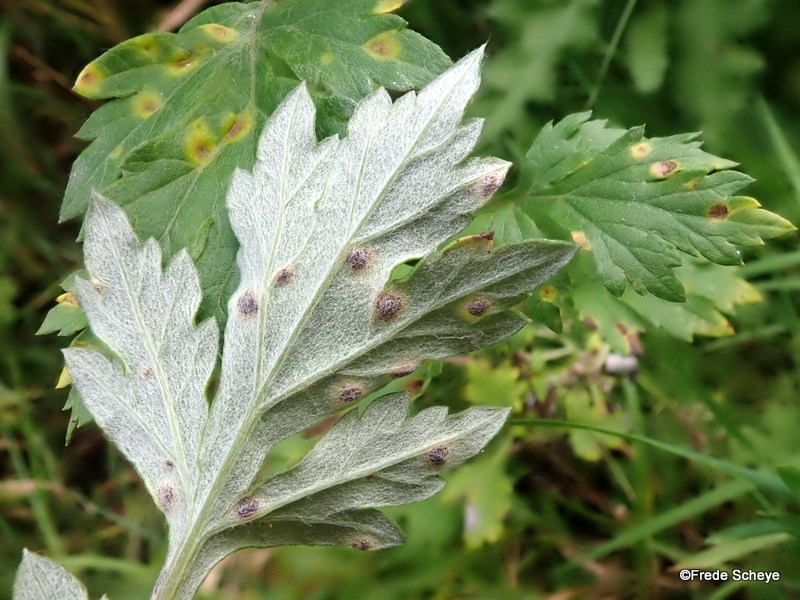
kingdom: Fungi
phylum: Basidiomycota
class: Pucciniomycetes
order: Pucciniales
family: Pucciniaceae
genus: Puccinia
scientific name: Puccinia tanaceti
